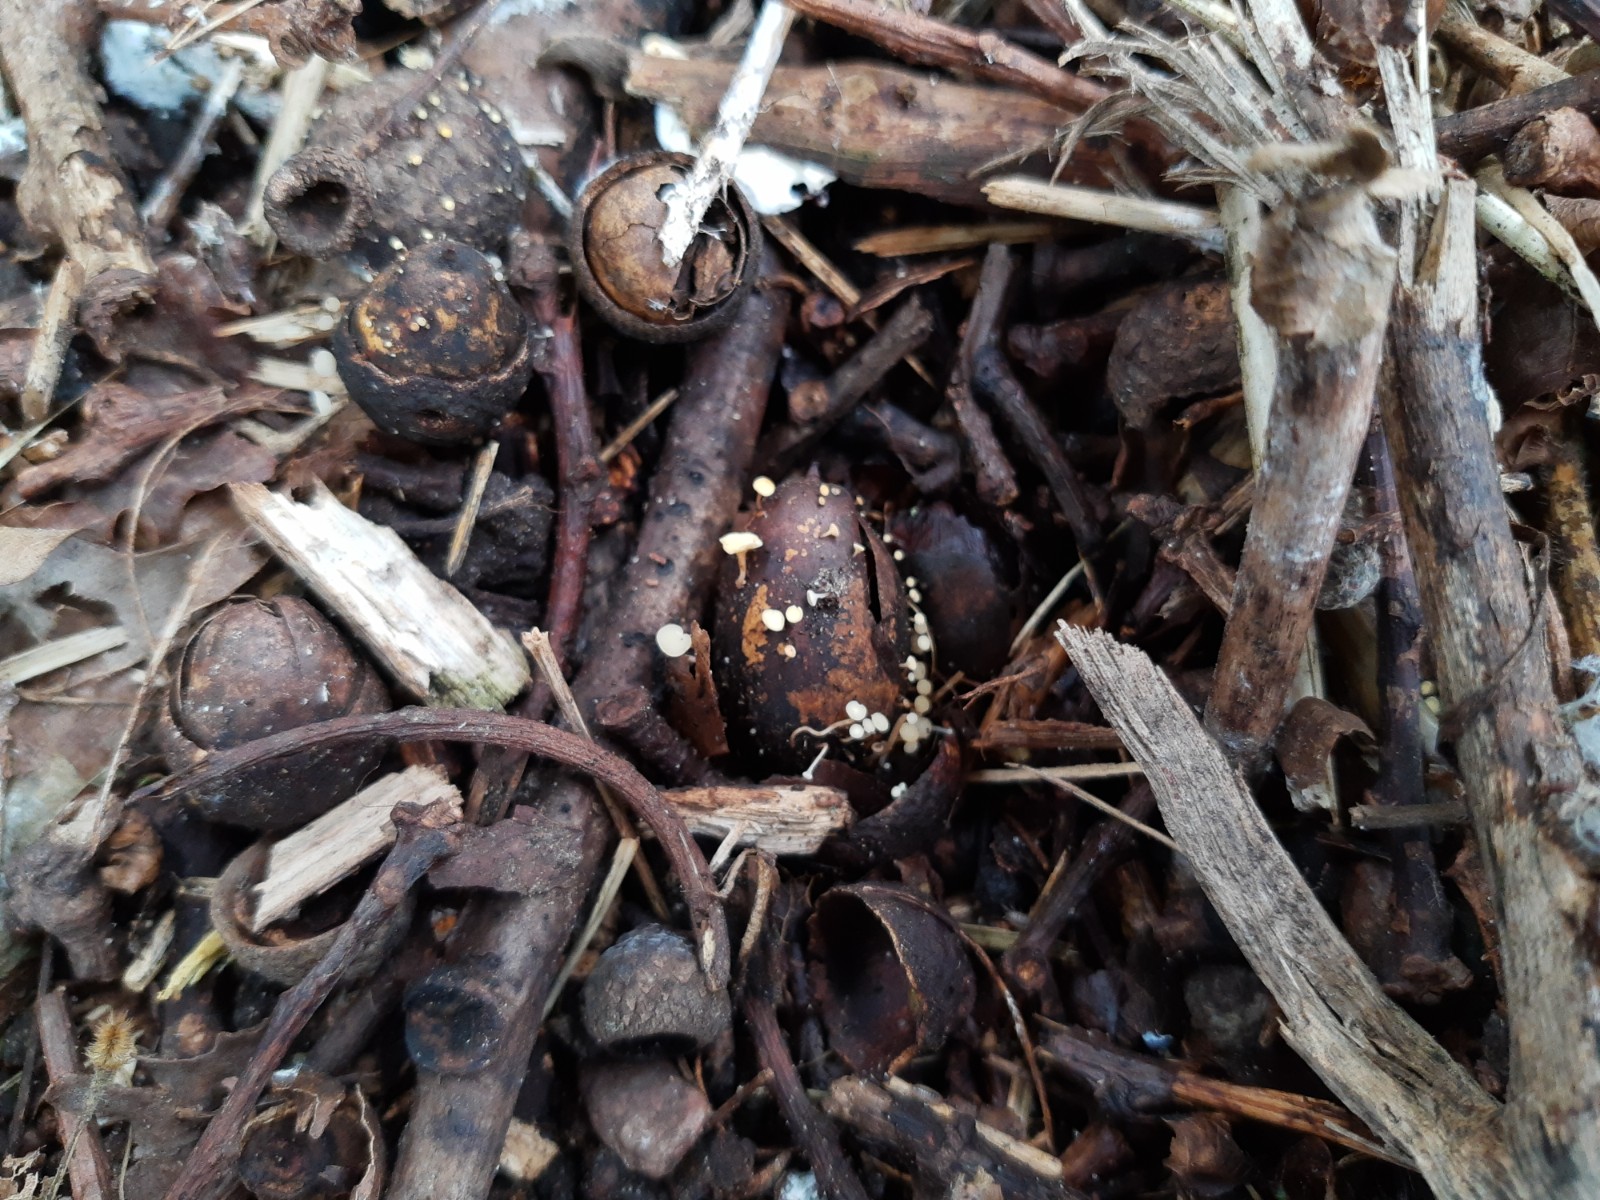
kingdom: Fungi
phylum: Ascomycota
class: Leotiomycetes
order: Helotiales
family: Helotiaceae
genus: Hymenoscyphus
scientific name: Hymenoscyphus fructigenus
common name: frugt-stilkskive
